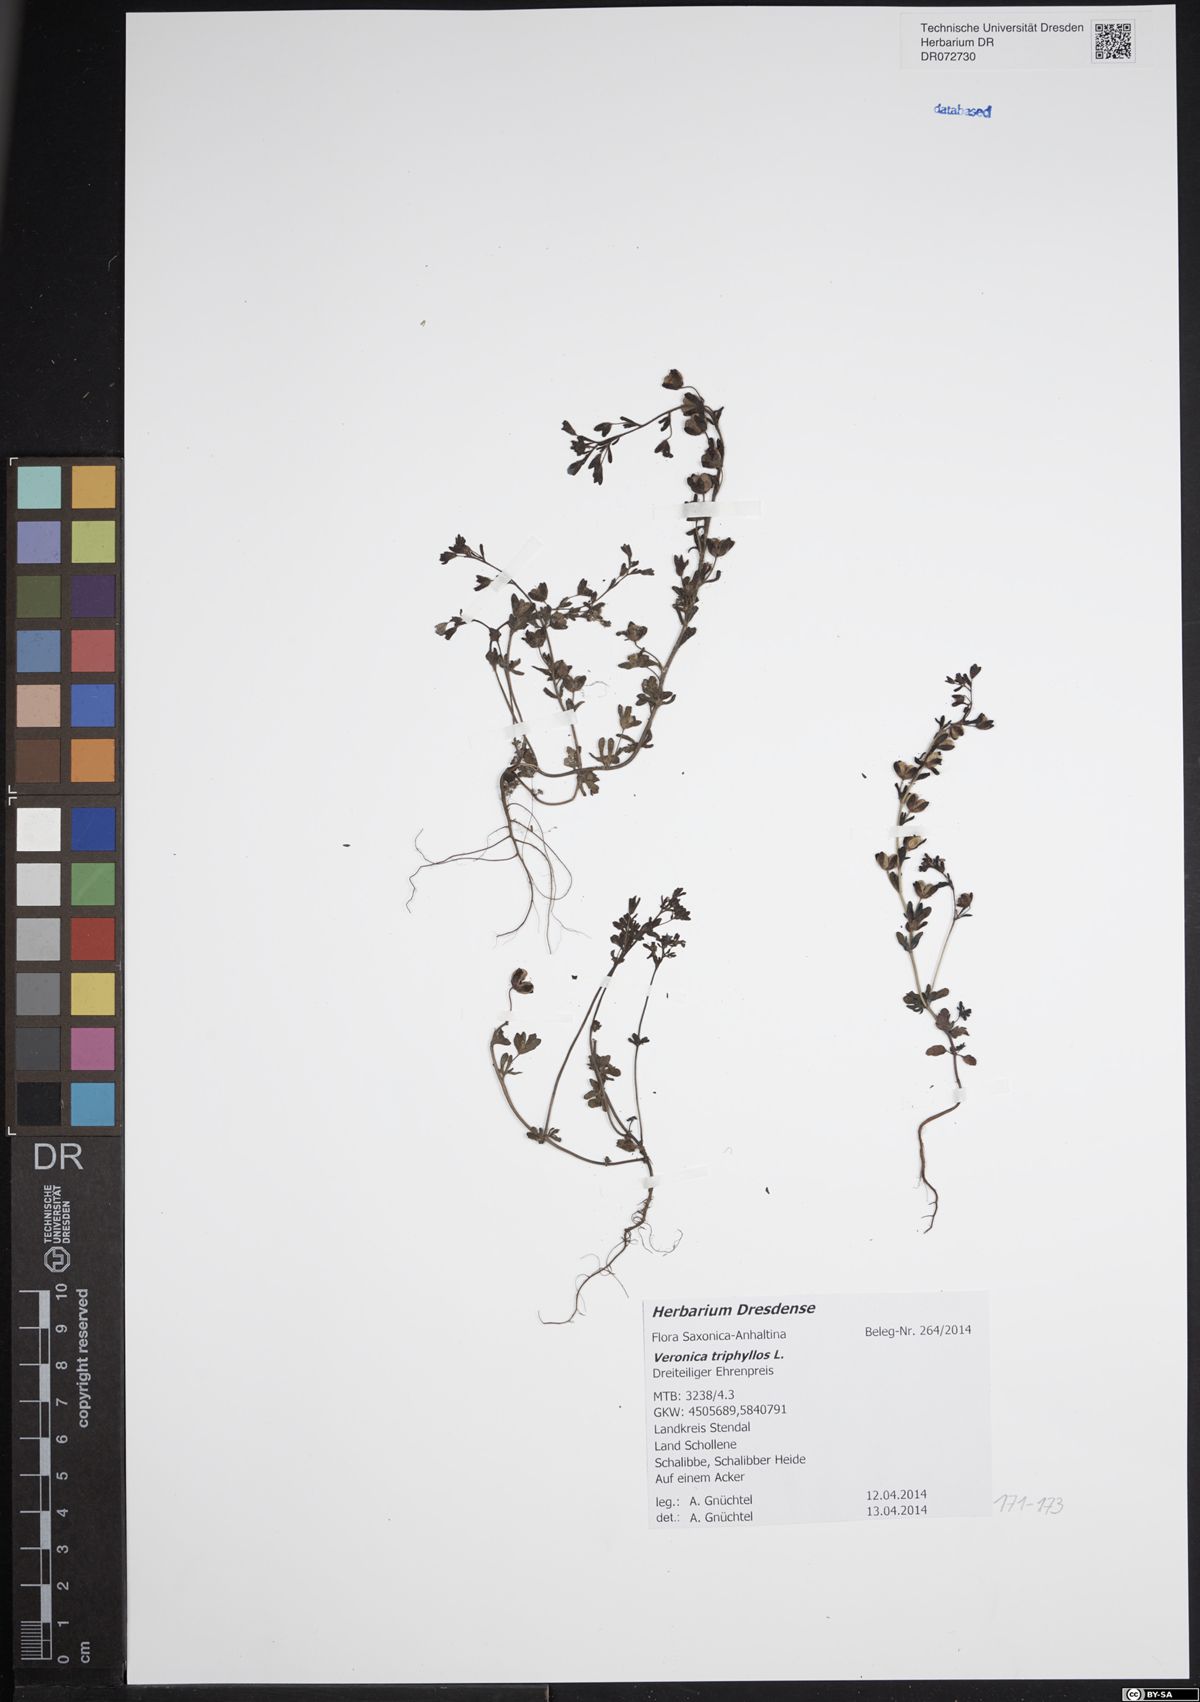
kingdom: Plantae
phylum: Tracheophyta
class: Magnoliopsida
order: Lamiales
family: Plantaginaceae
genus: Veronica
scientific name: Veronica triphyllos
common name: Fingered speedwell
